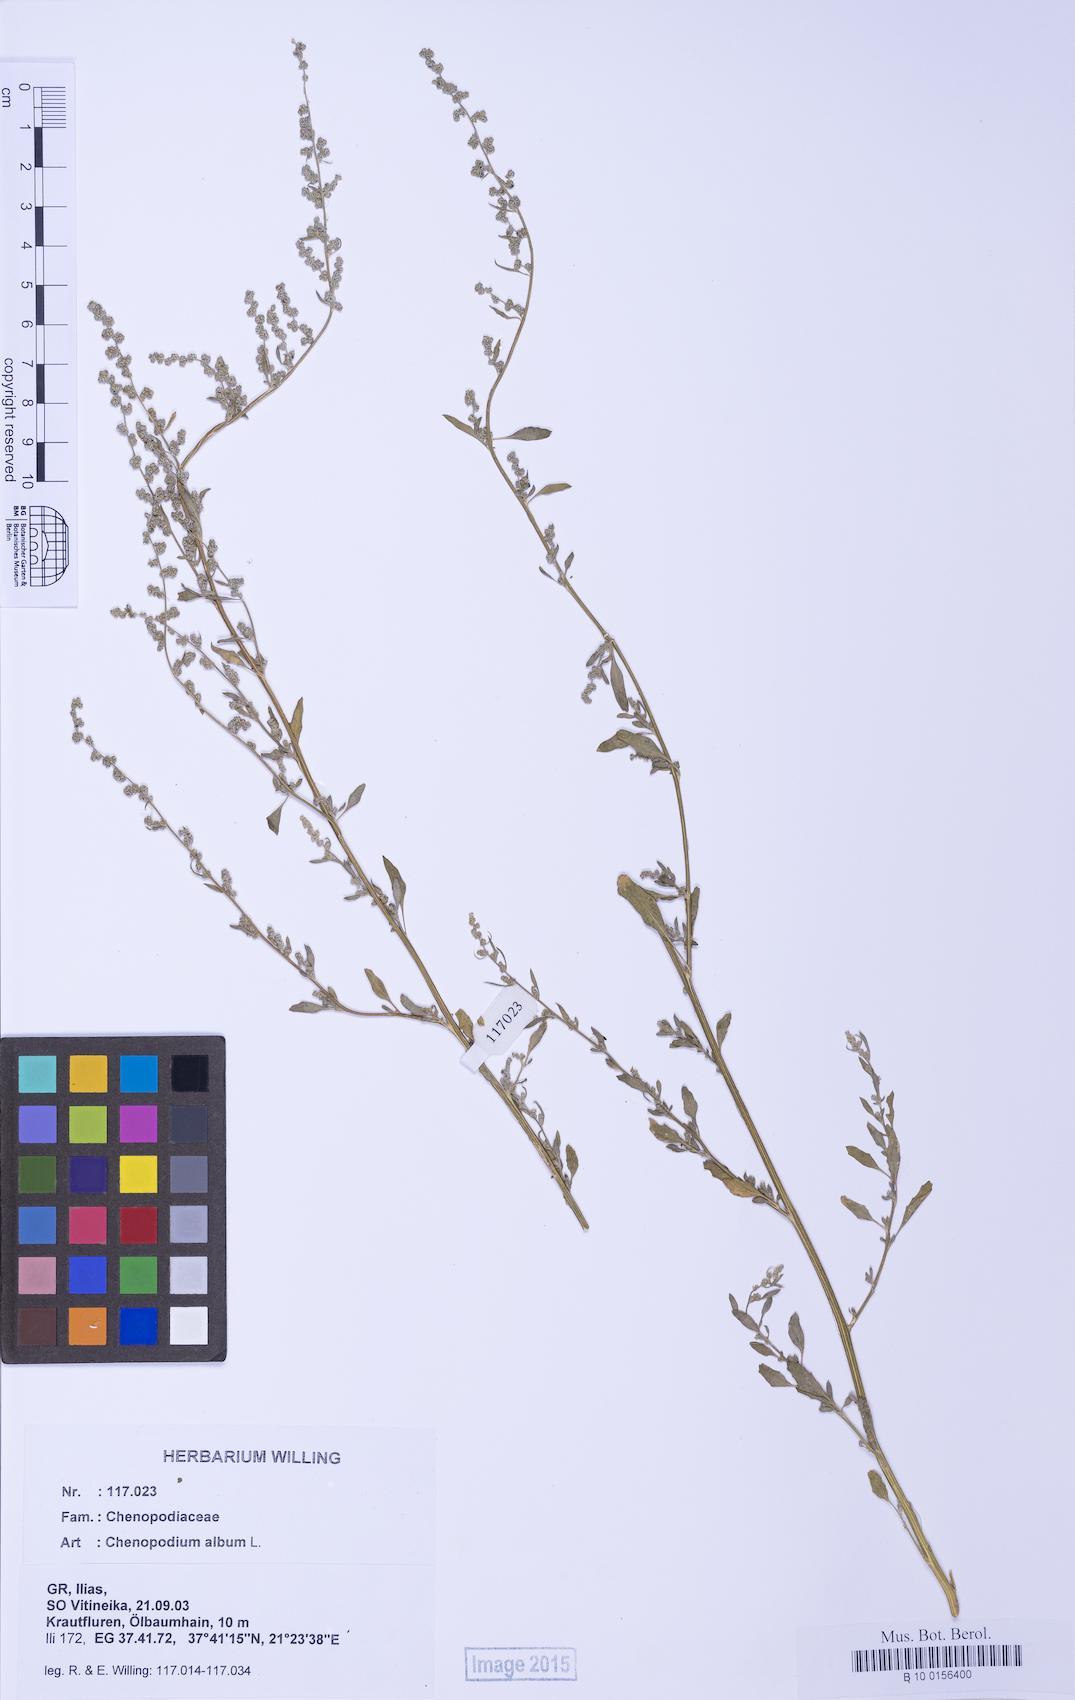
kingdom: Plantae
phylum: Tracheophyta
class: Magnoliopsida
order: Caryophyllales
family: Amaranthaceae
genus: Chenopodium
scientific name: Chenopodium album
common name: Fat-hen
